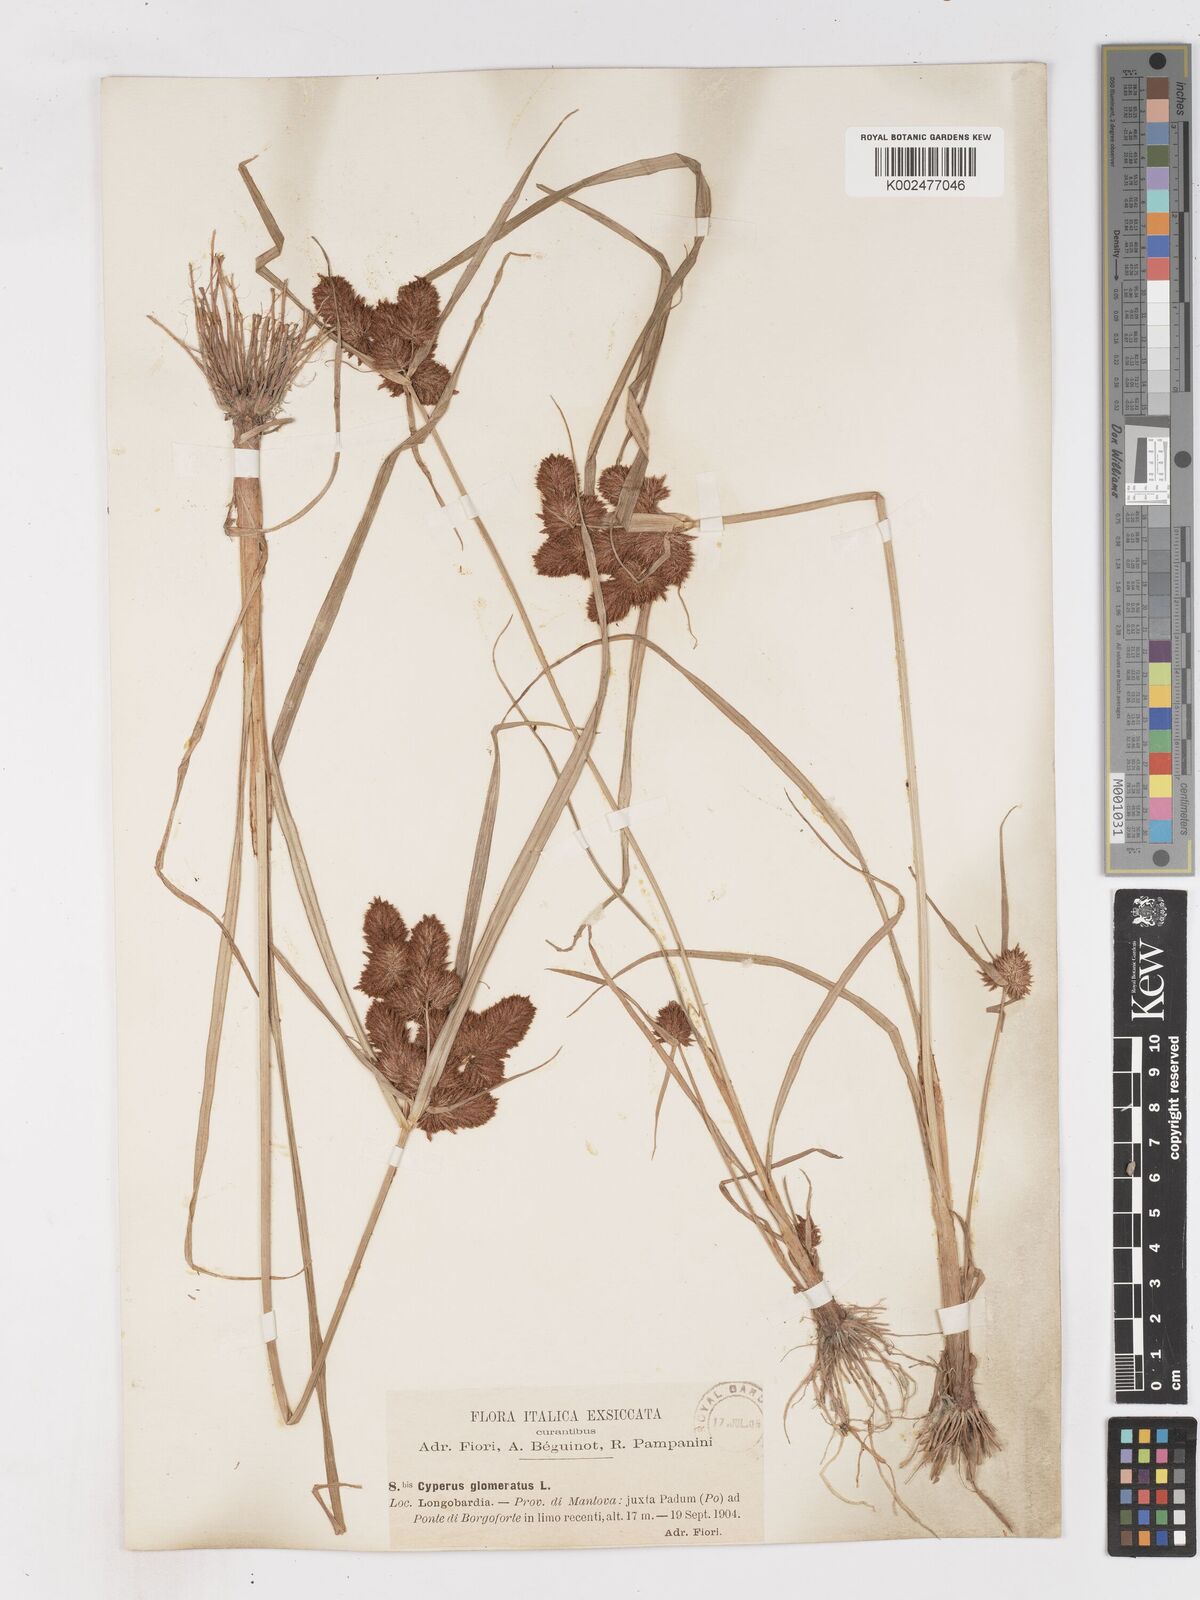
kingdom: Plantae
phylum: Tracheophyta
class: Liliopsida
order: Poales
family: Cyperaceae
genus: Cyperus
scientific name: Cyperus glomeratus
